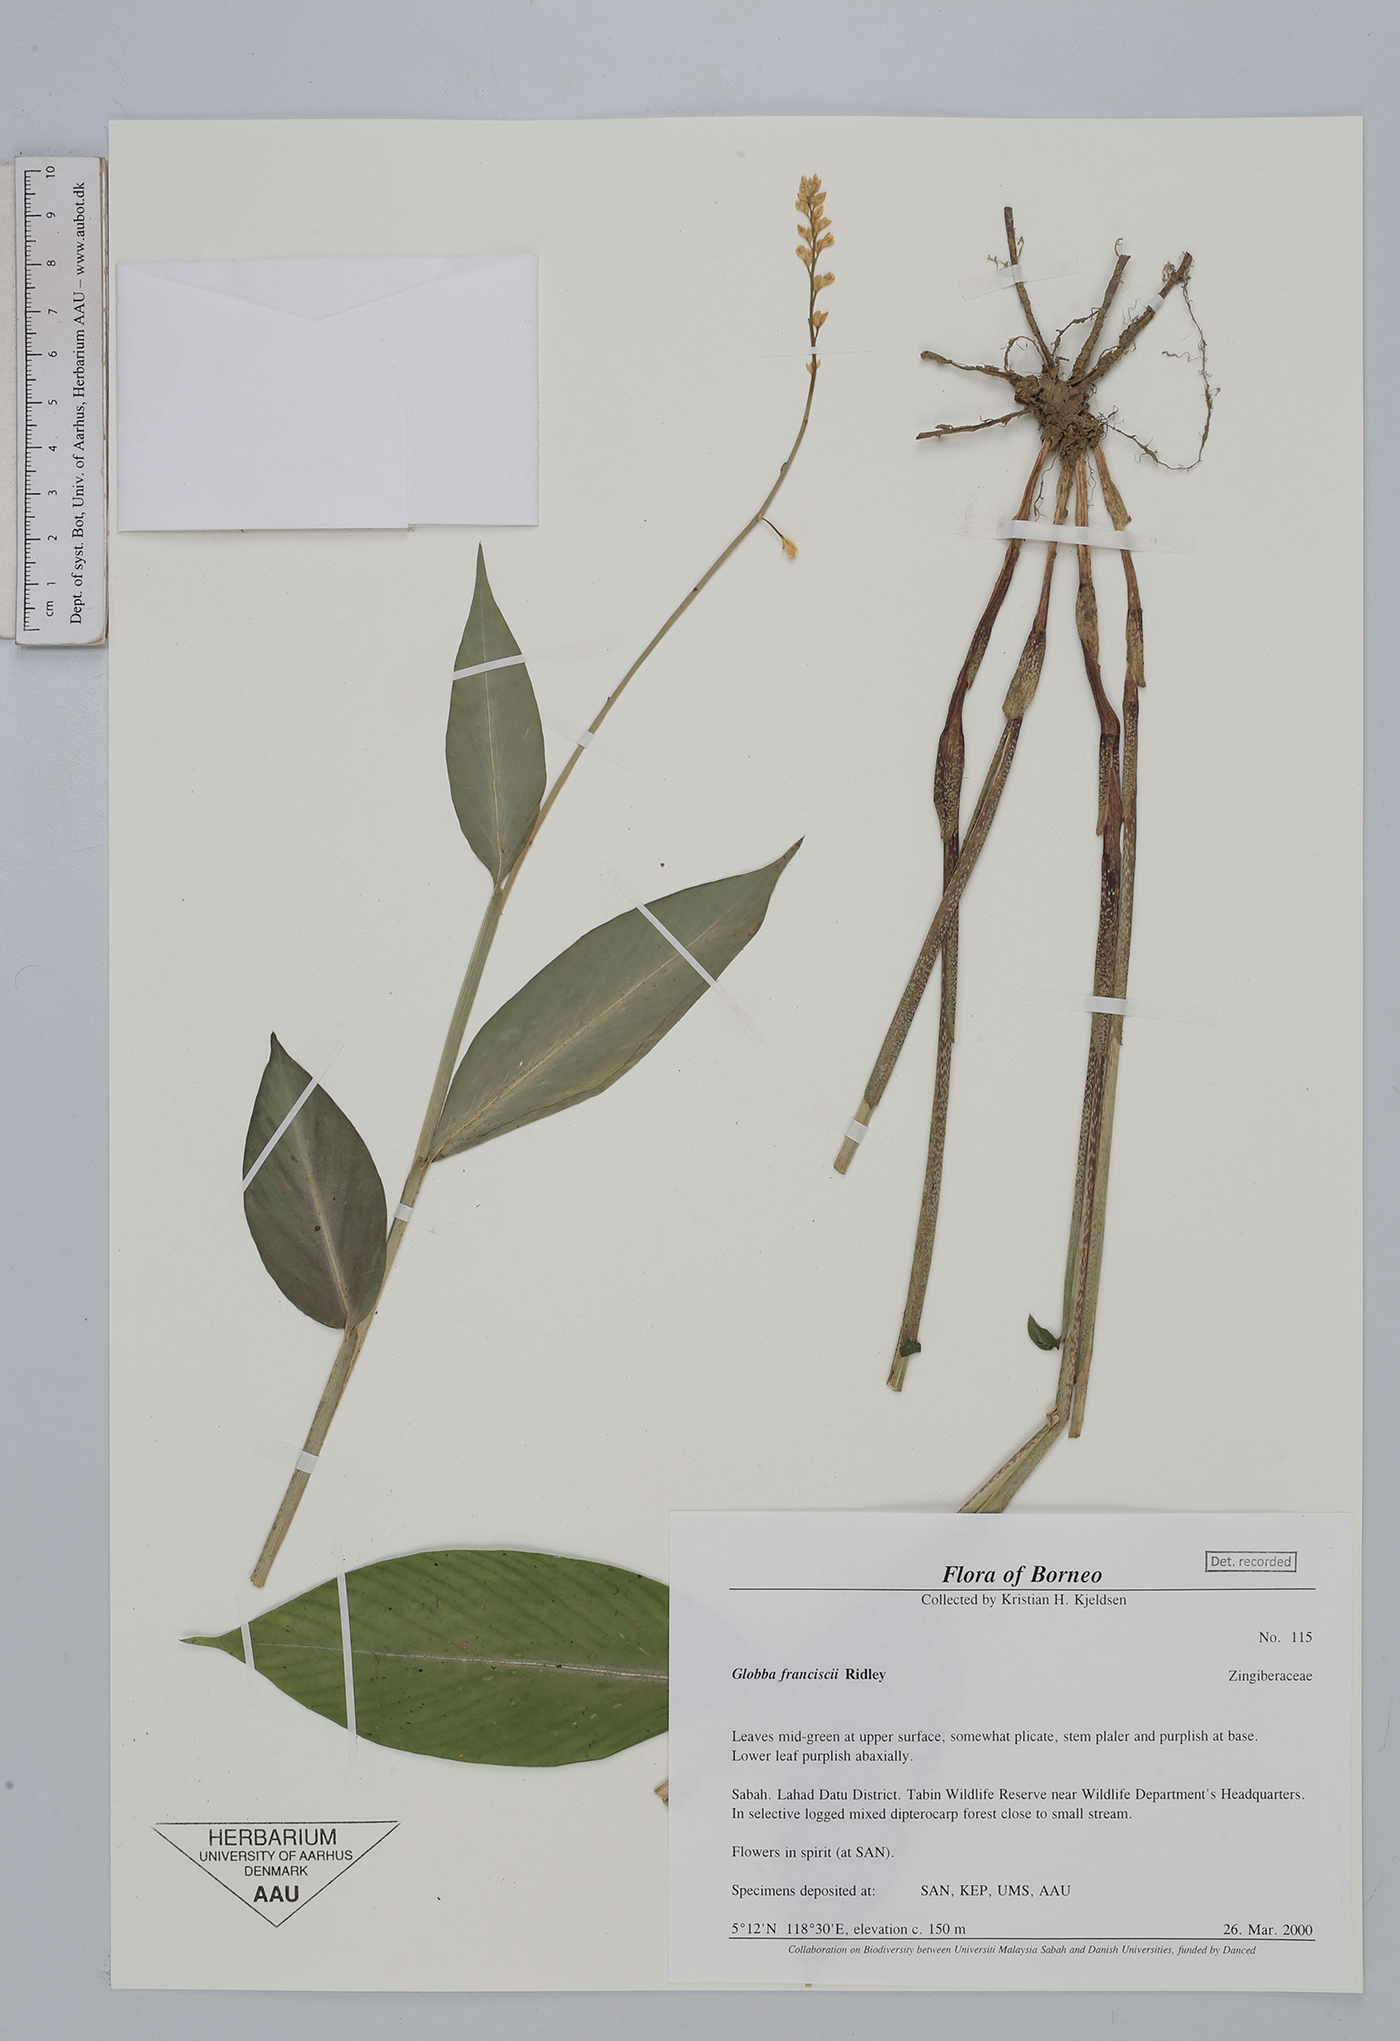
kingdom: Plantae
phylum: Tracheophyta
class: Liliopsida
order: Zingiberales
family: Zingiberaceae
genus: Globba
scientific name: Globba francisci
